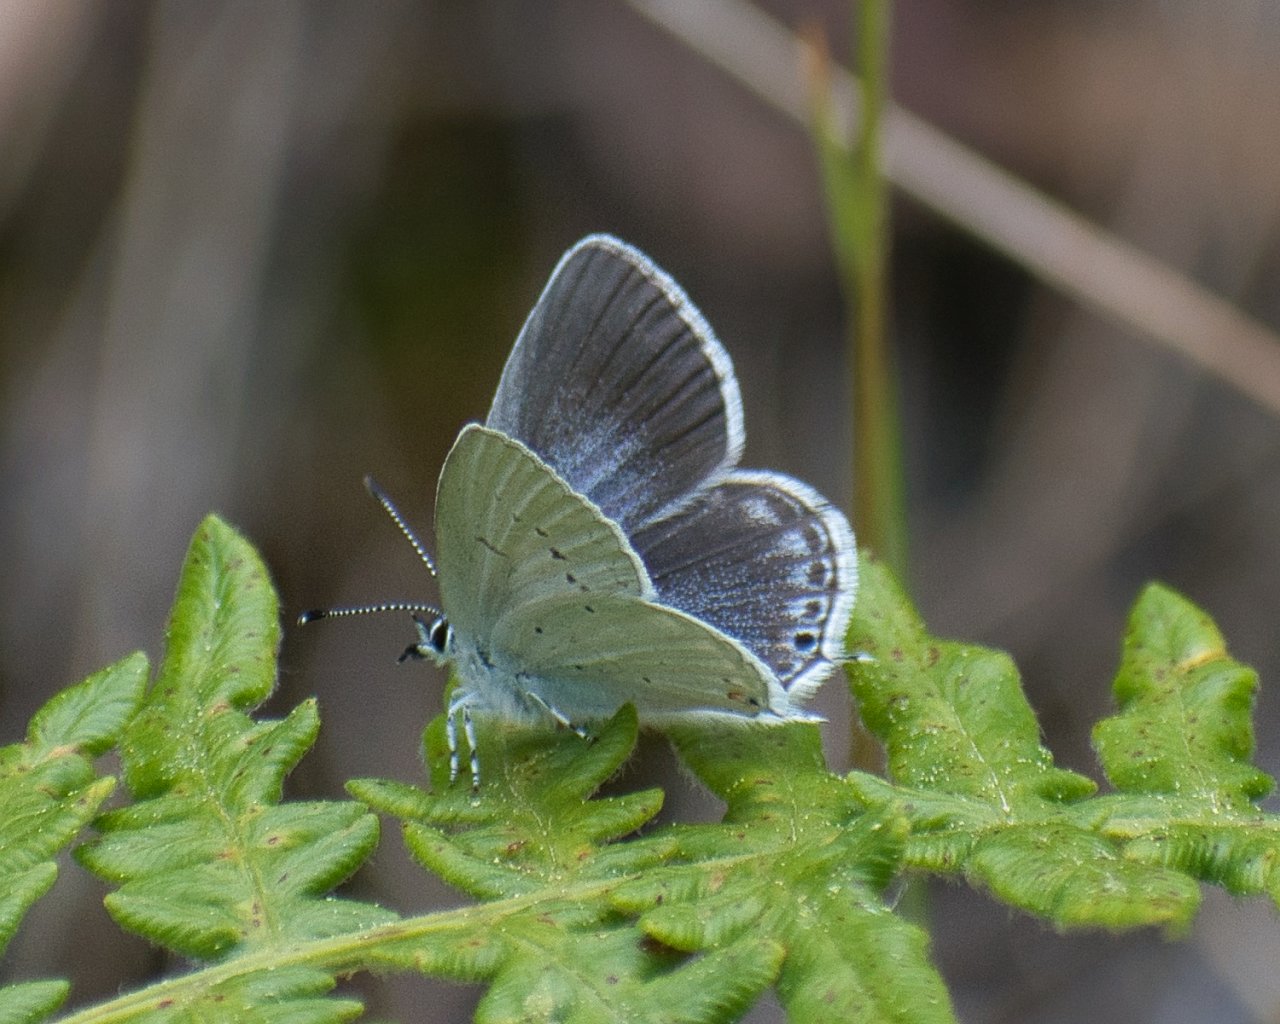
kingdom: Animalia
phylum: Arthropoda
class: Insecta
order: Lepidoptera
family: Lycaenidae
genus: Elkalyce
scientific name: Elkalyce amyntula
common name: Western Tailed-Blue
